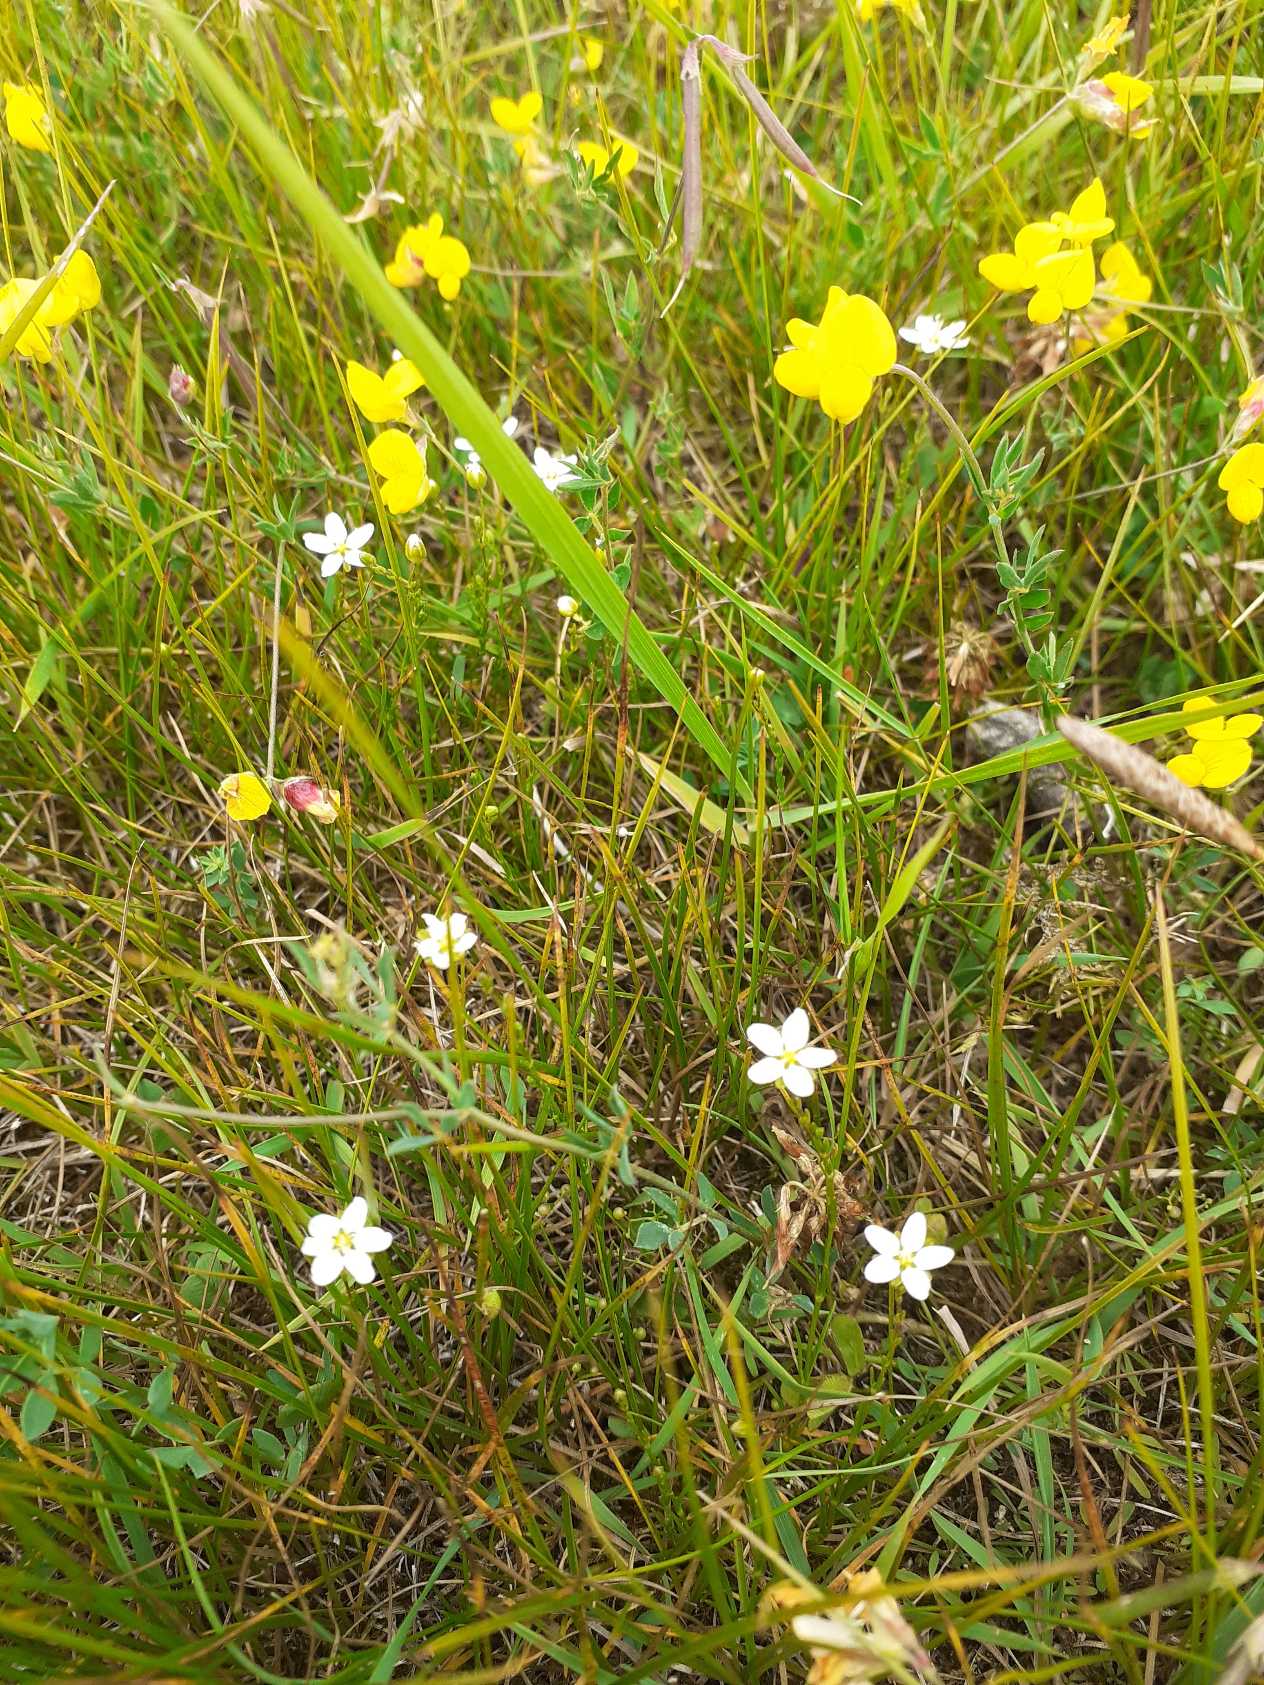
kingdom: Plantae
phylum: Tracheophyta
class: Magnoliopsida
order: Caryophyllales
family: Caryophyllaceae
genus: Sagina
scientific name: Sagina nodosa
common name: Knude-firling
